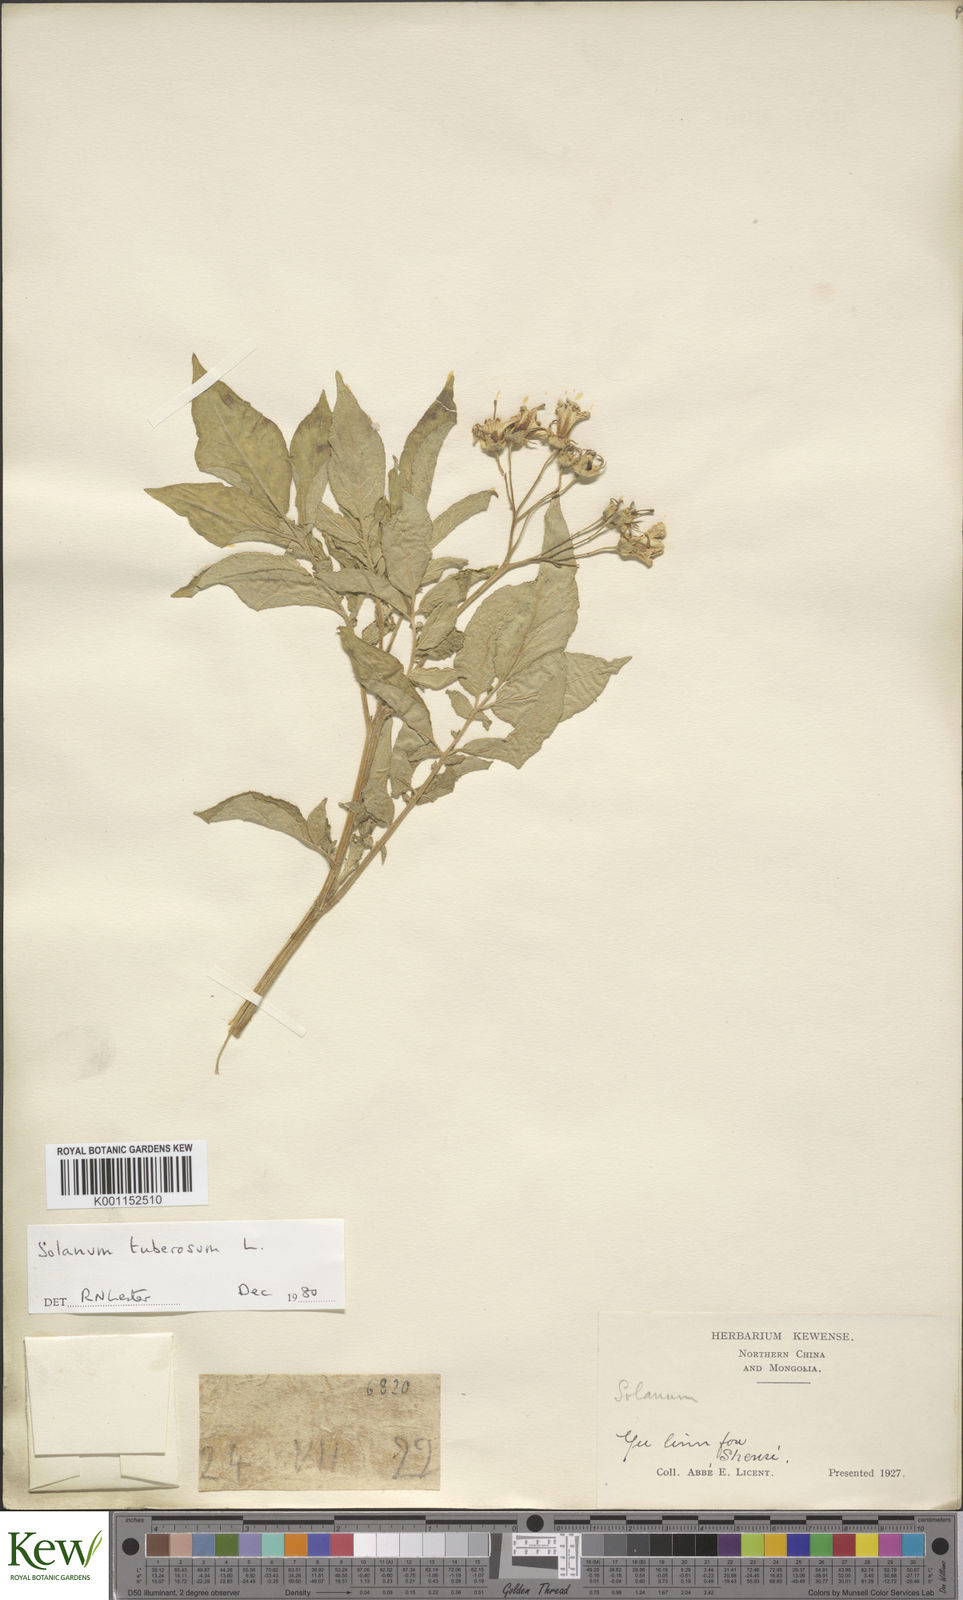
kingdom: Plantae
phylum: Tracheophyta
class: Magnoliopsida
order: Solanales
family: Solanaceae
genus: Solanum
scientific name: Solanum tuberosum
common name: Potato
